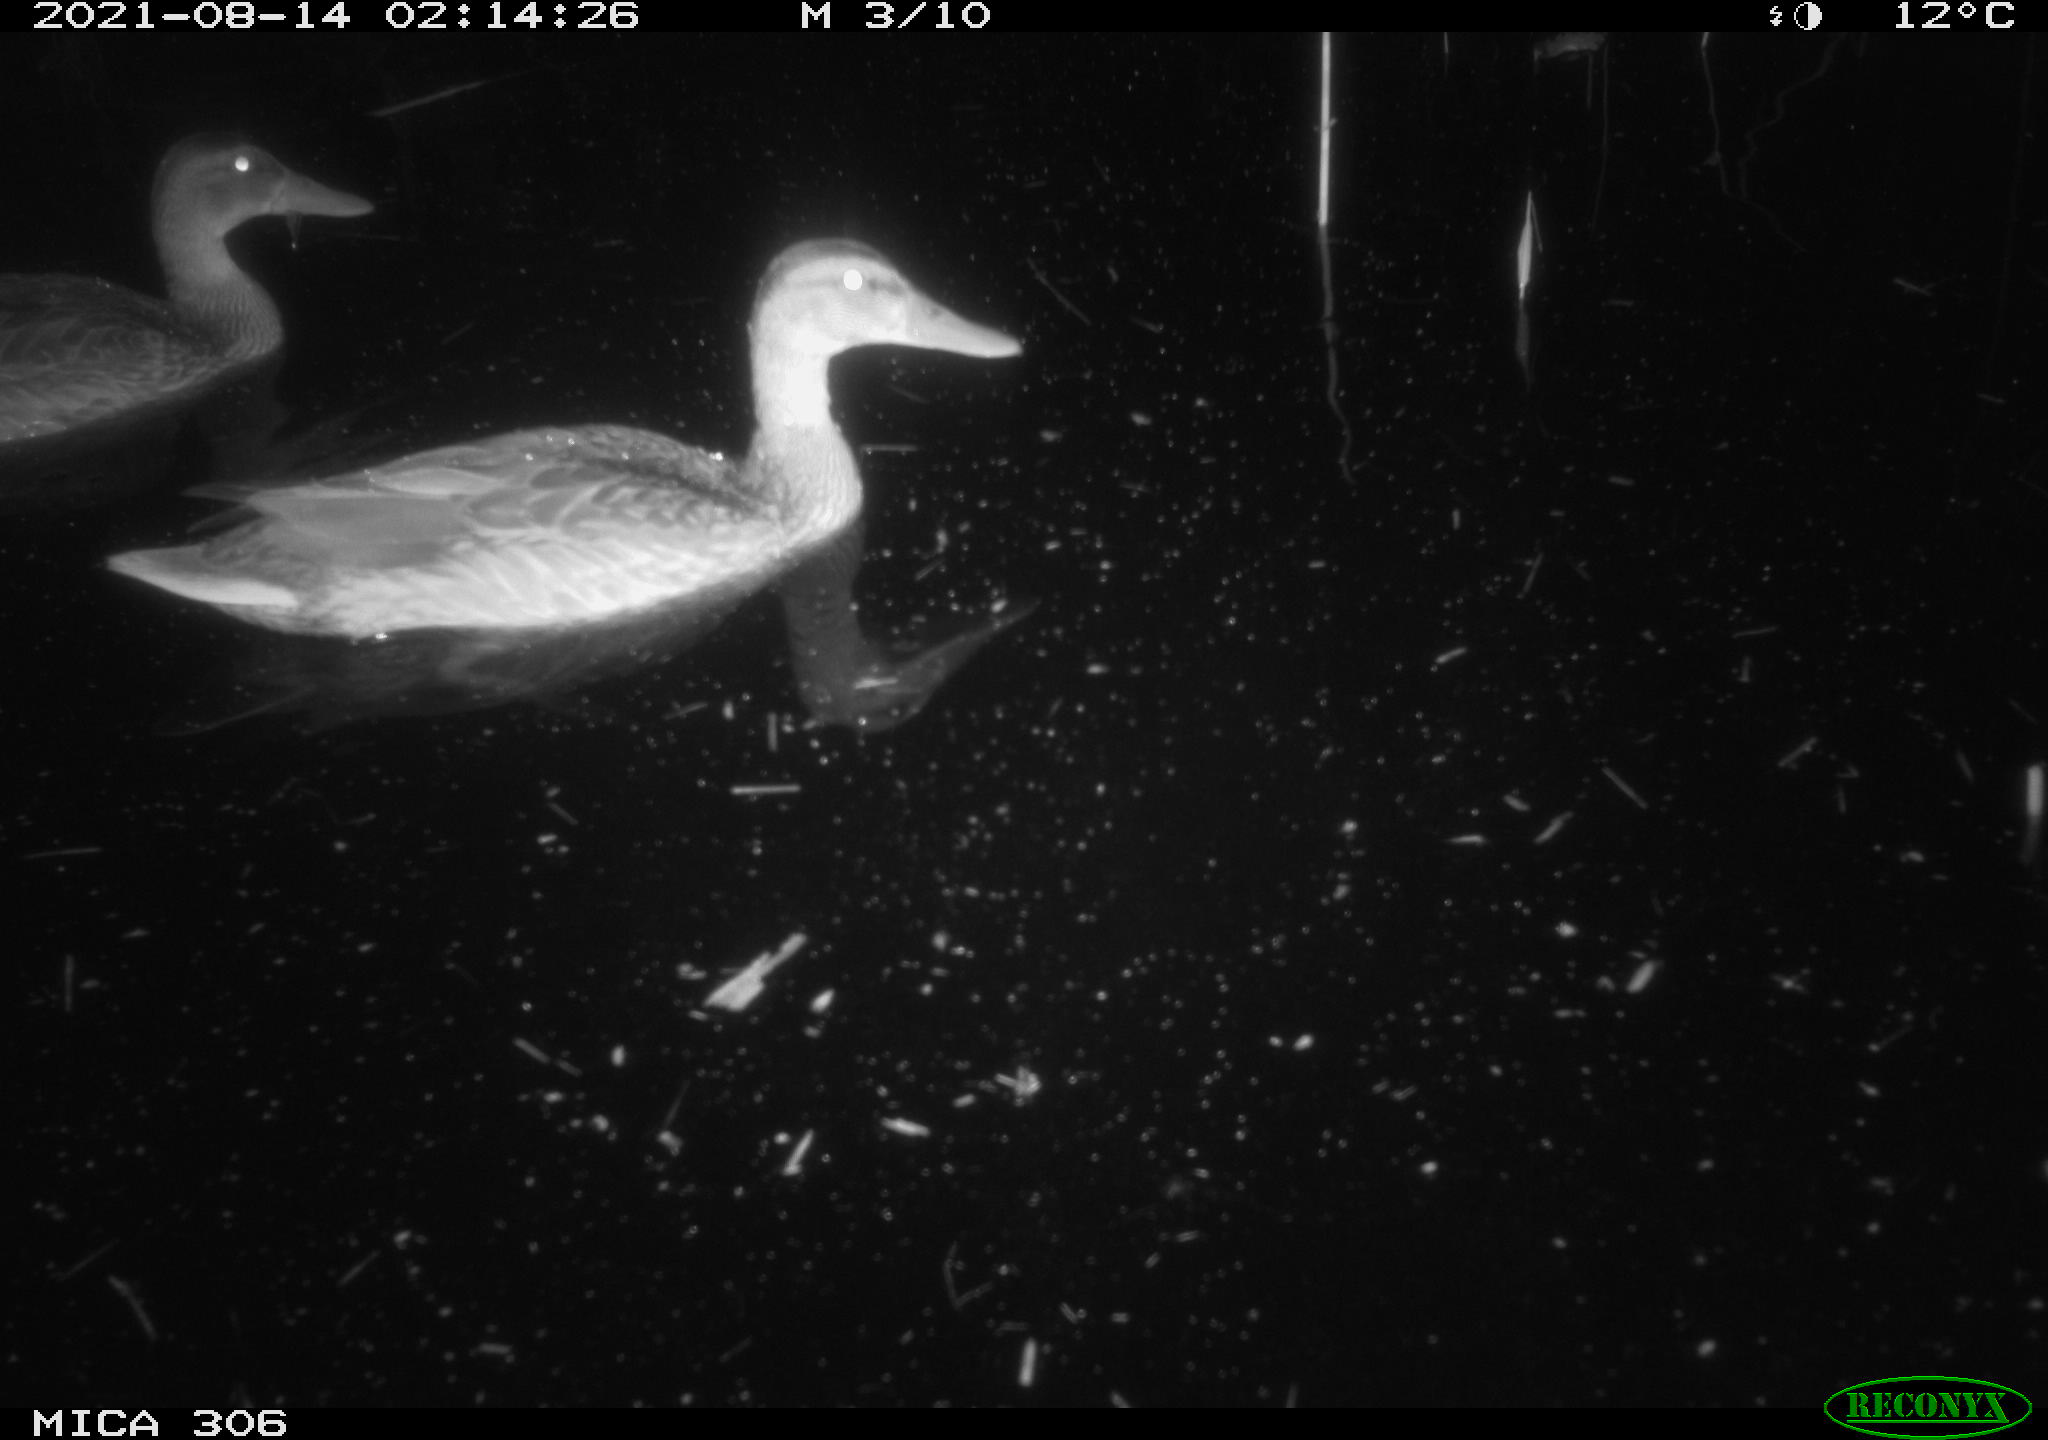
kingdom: Animalia
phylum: Chordata
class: Aves
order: Anseriformes
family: Anatidae
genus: Anas
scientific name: Anas platyrhynchos
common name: Mallard
